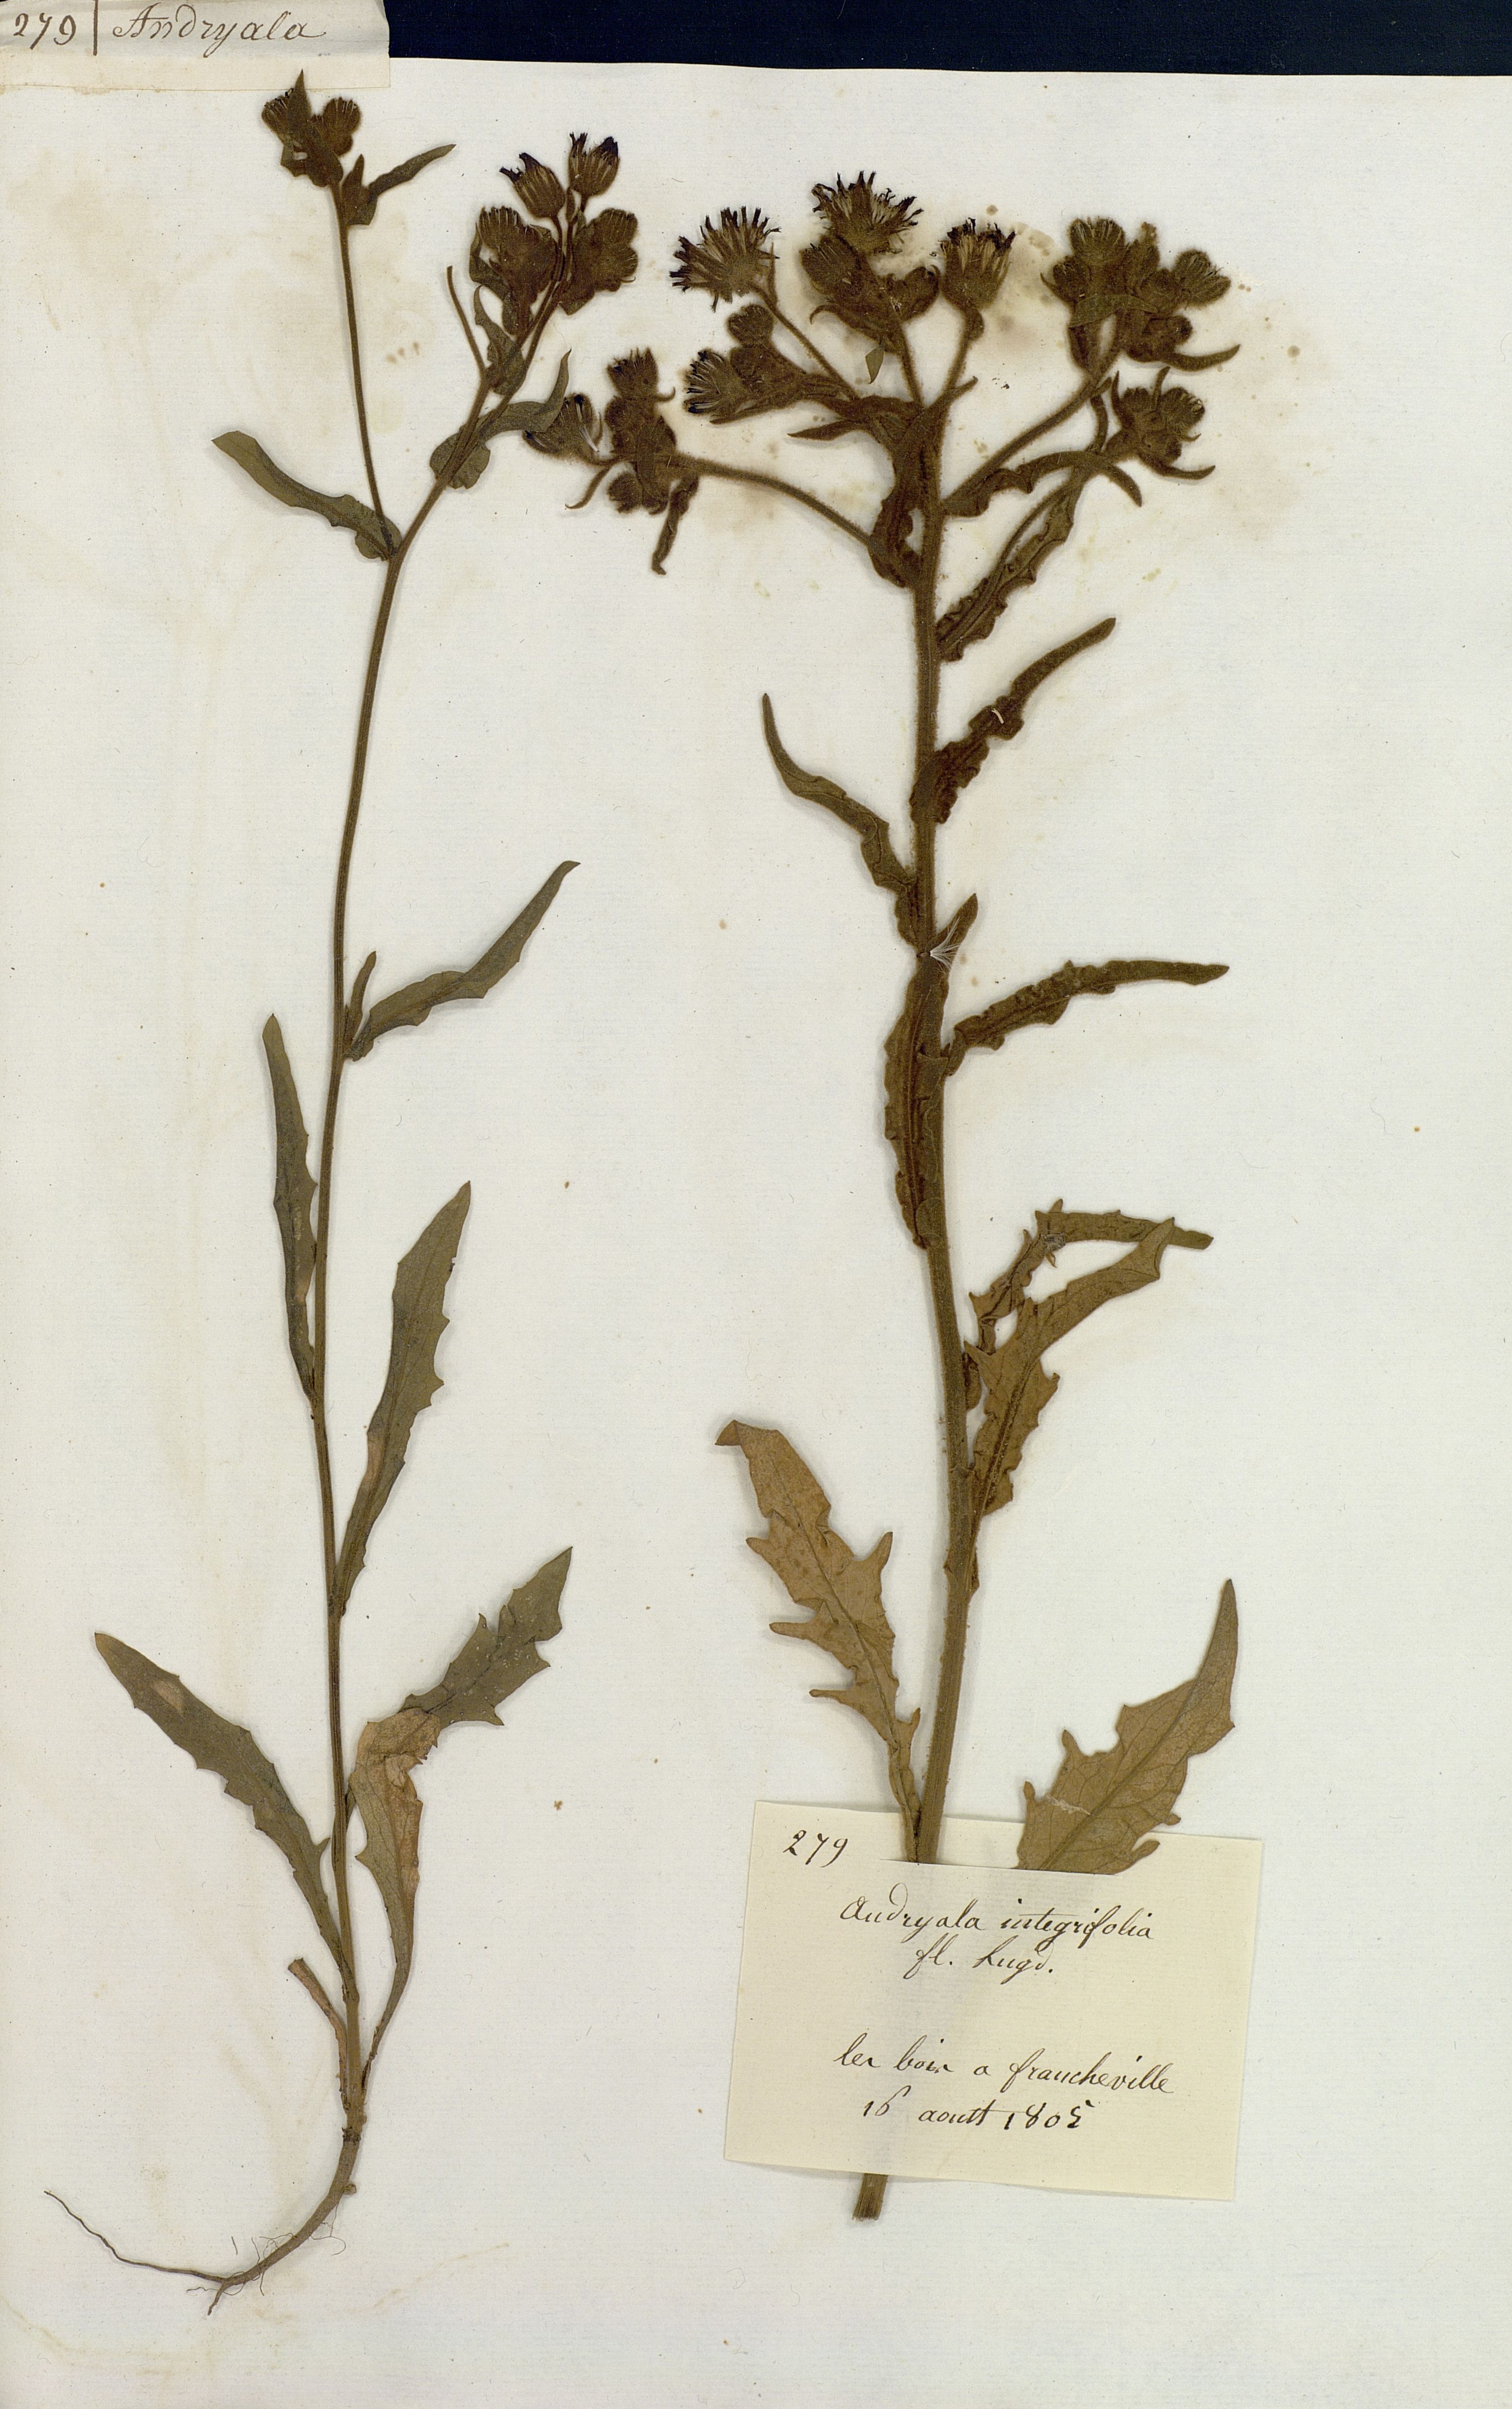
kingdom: Plantae
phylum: Tracheophyta
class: Magnoliopsida
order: Asterales
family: Asteraceae
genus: Andryala
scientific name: Andryala integrifolia
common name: Common andryala
